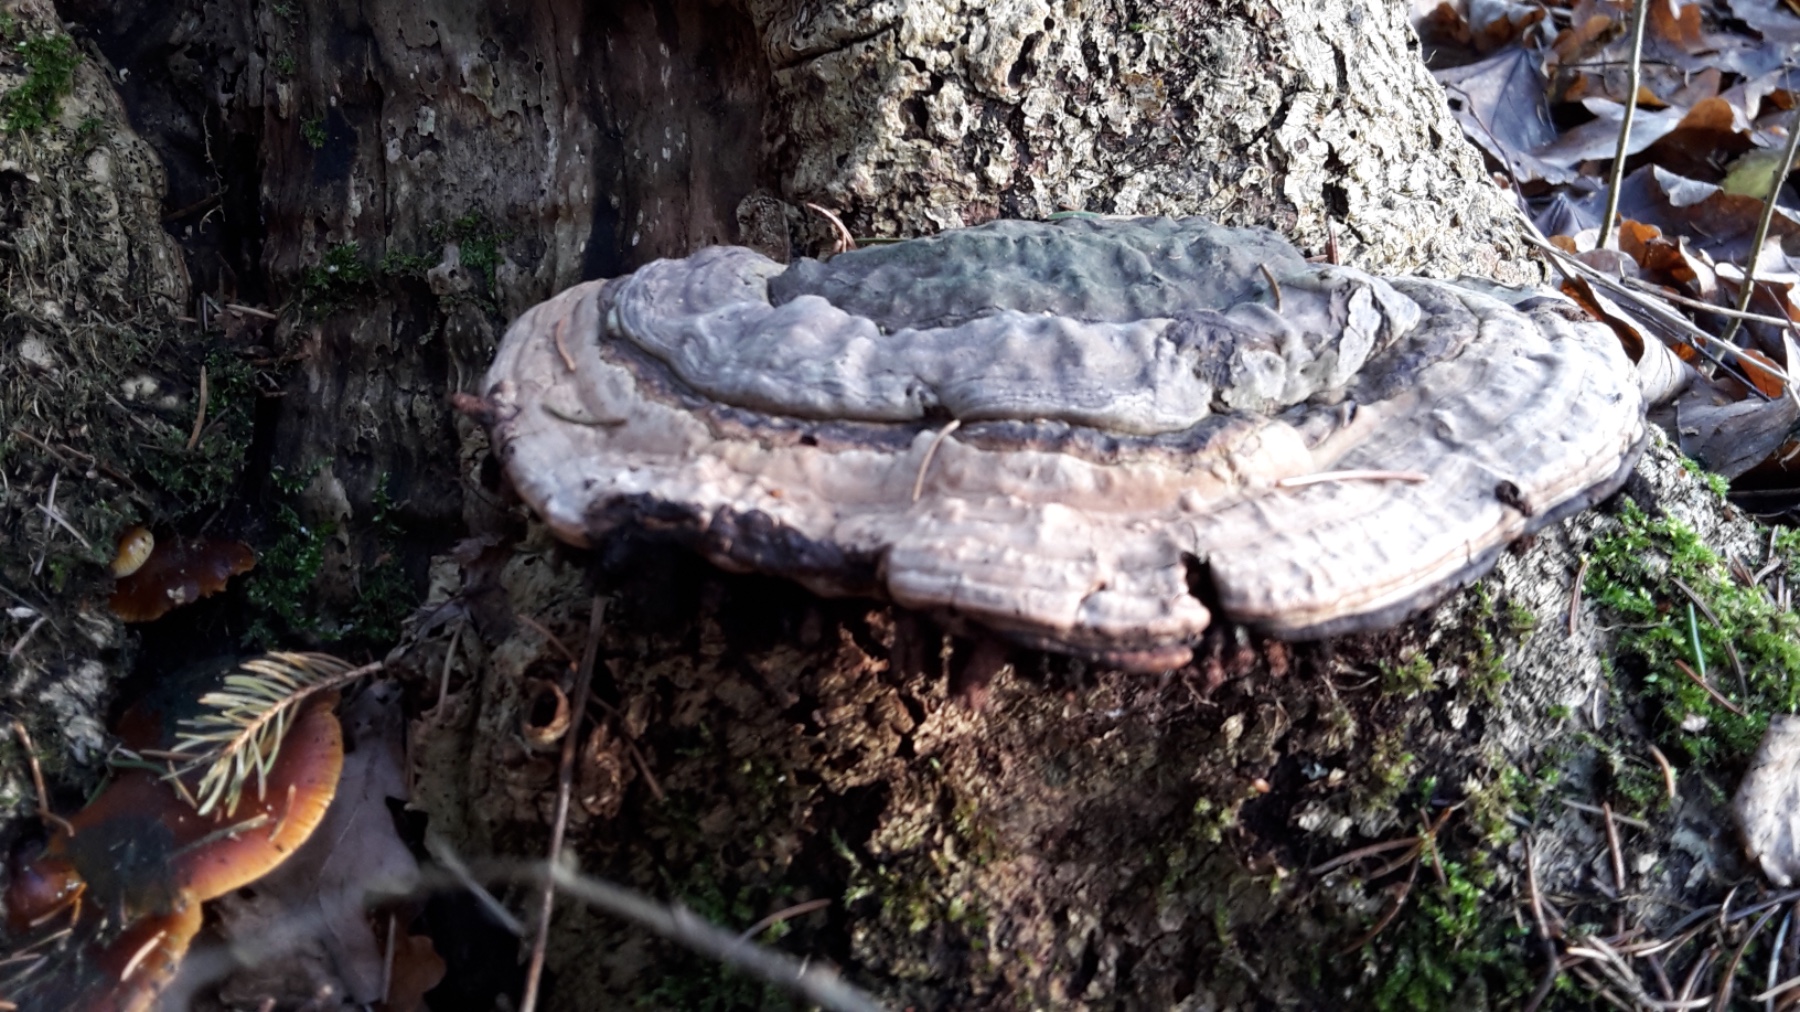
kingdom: Fungi
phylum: Basidiomycota
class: Agaricomycetes
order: Polyporales
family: Polyporaceae
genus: Ganoderma
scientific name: Ganoderma applanatum
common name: flad lakporesvamp
